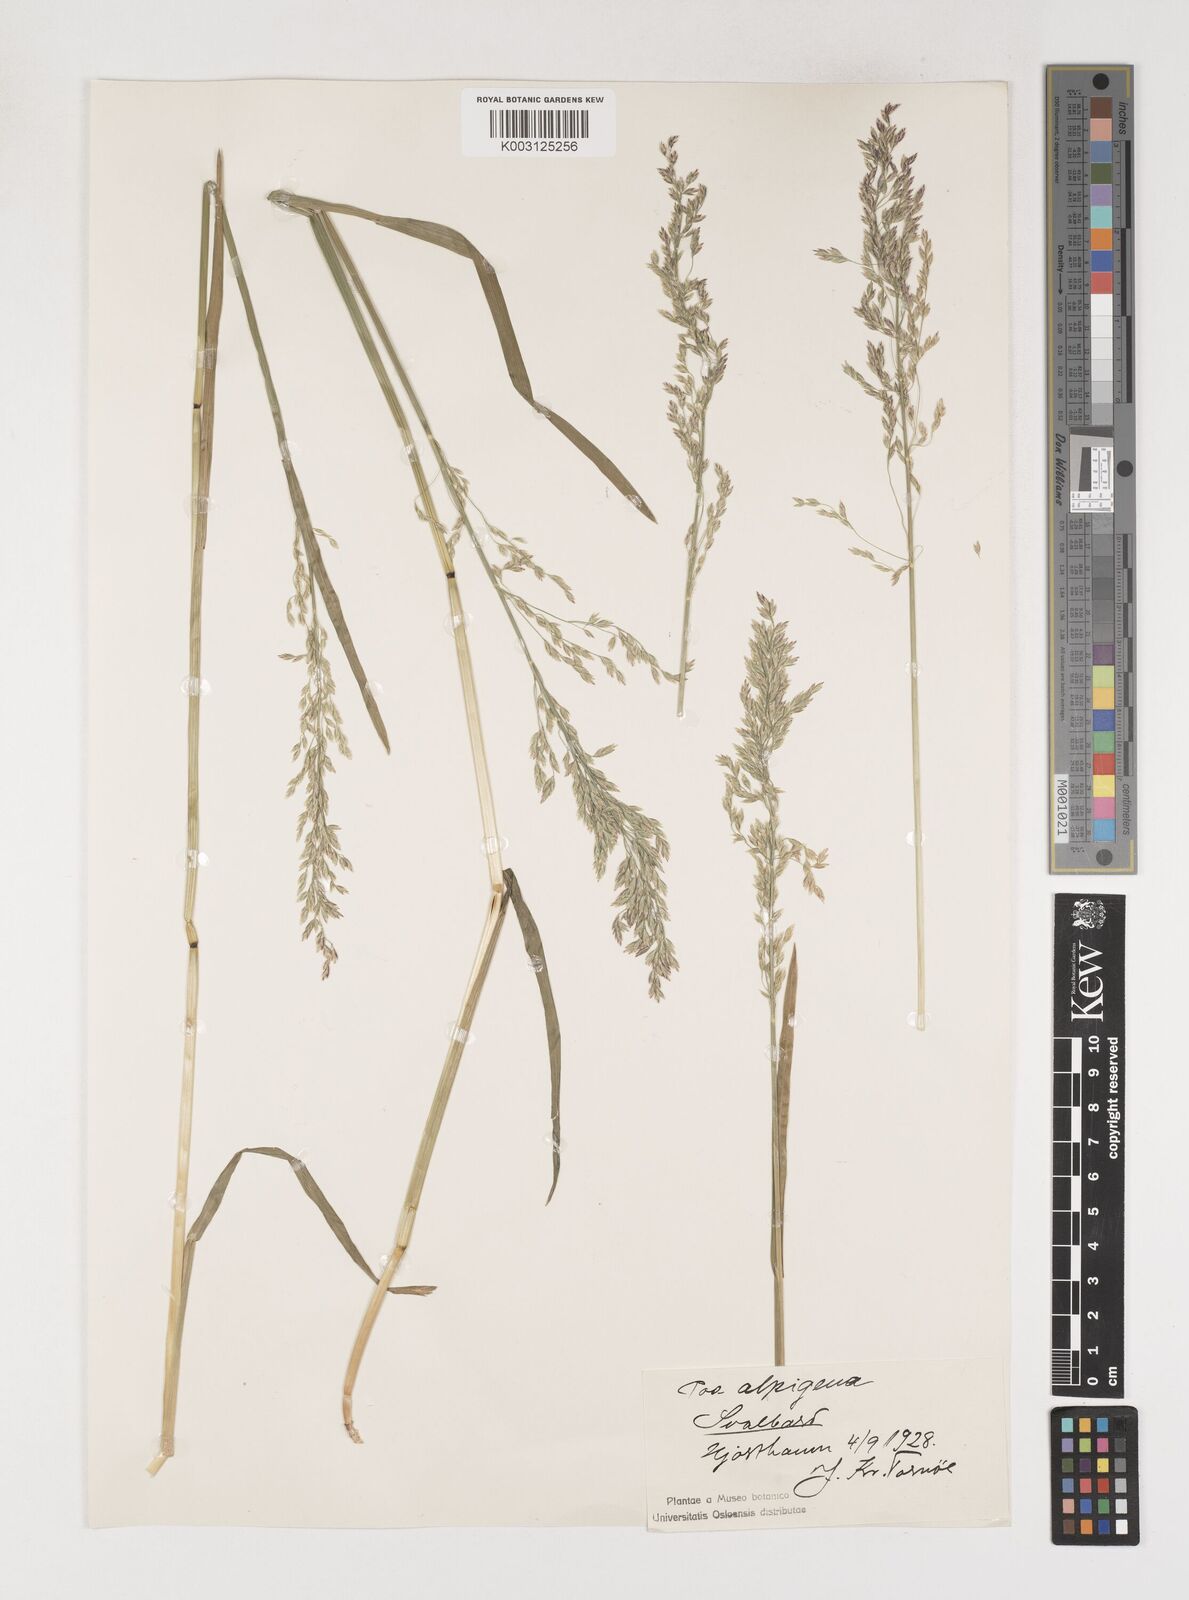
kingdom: Plantae
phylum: Tracheophyta
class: Liliopsida
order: Poales
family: Poaceae
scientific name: Poaceae
